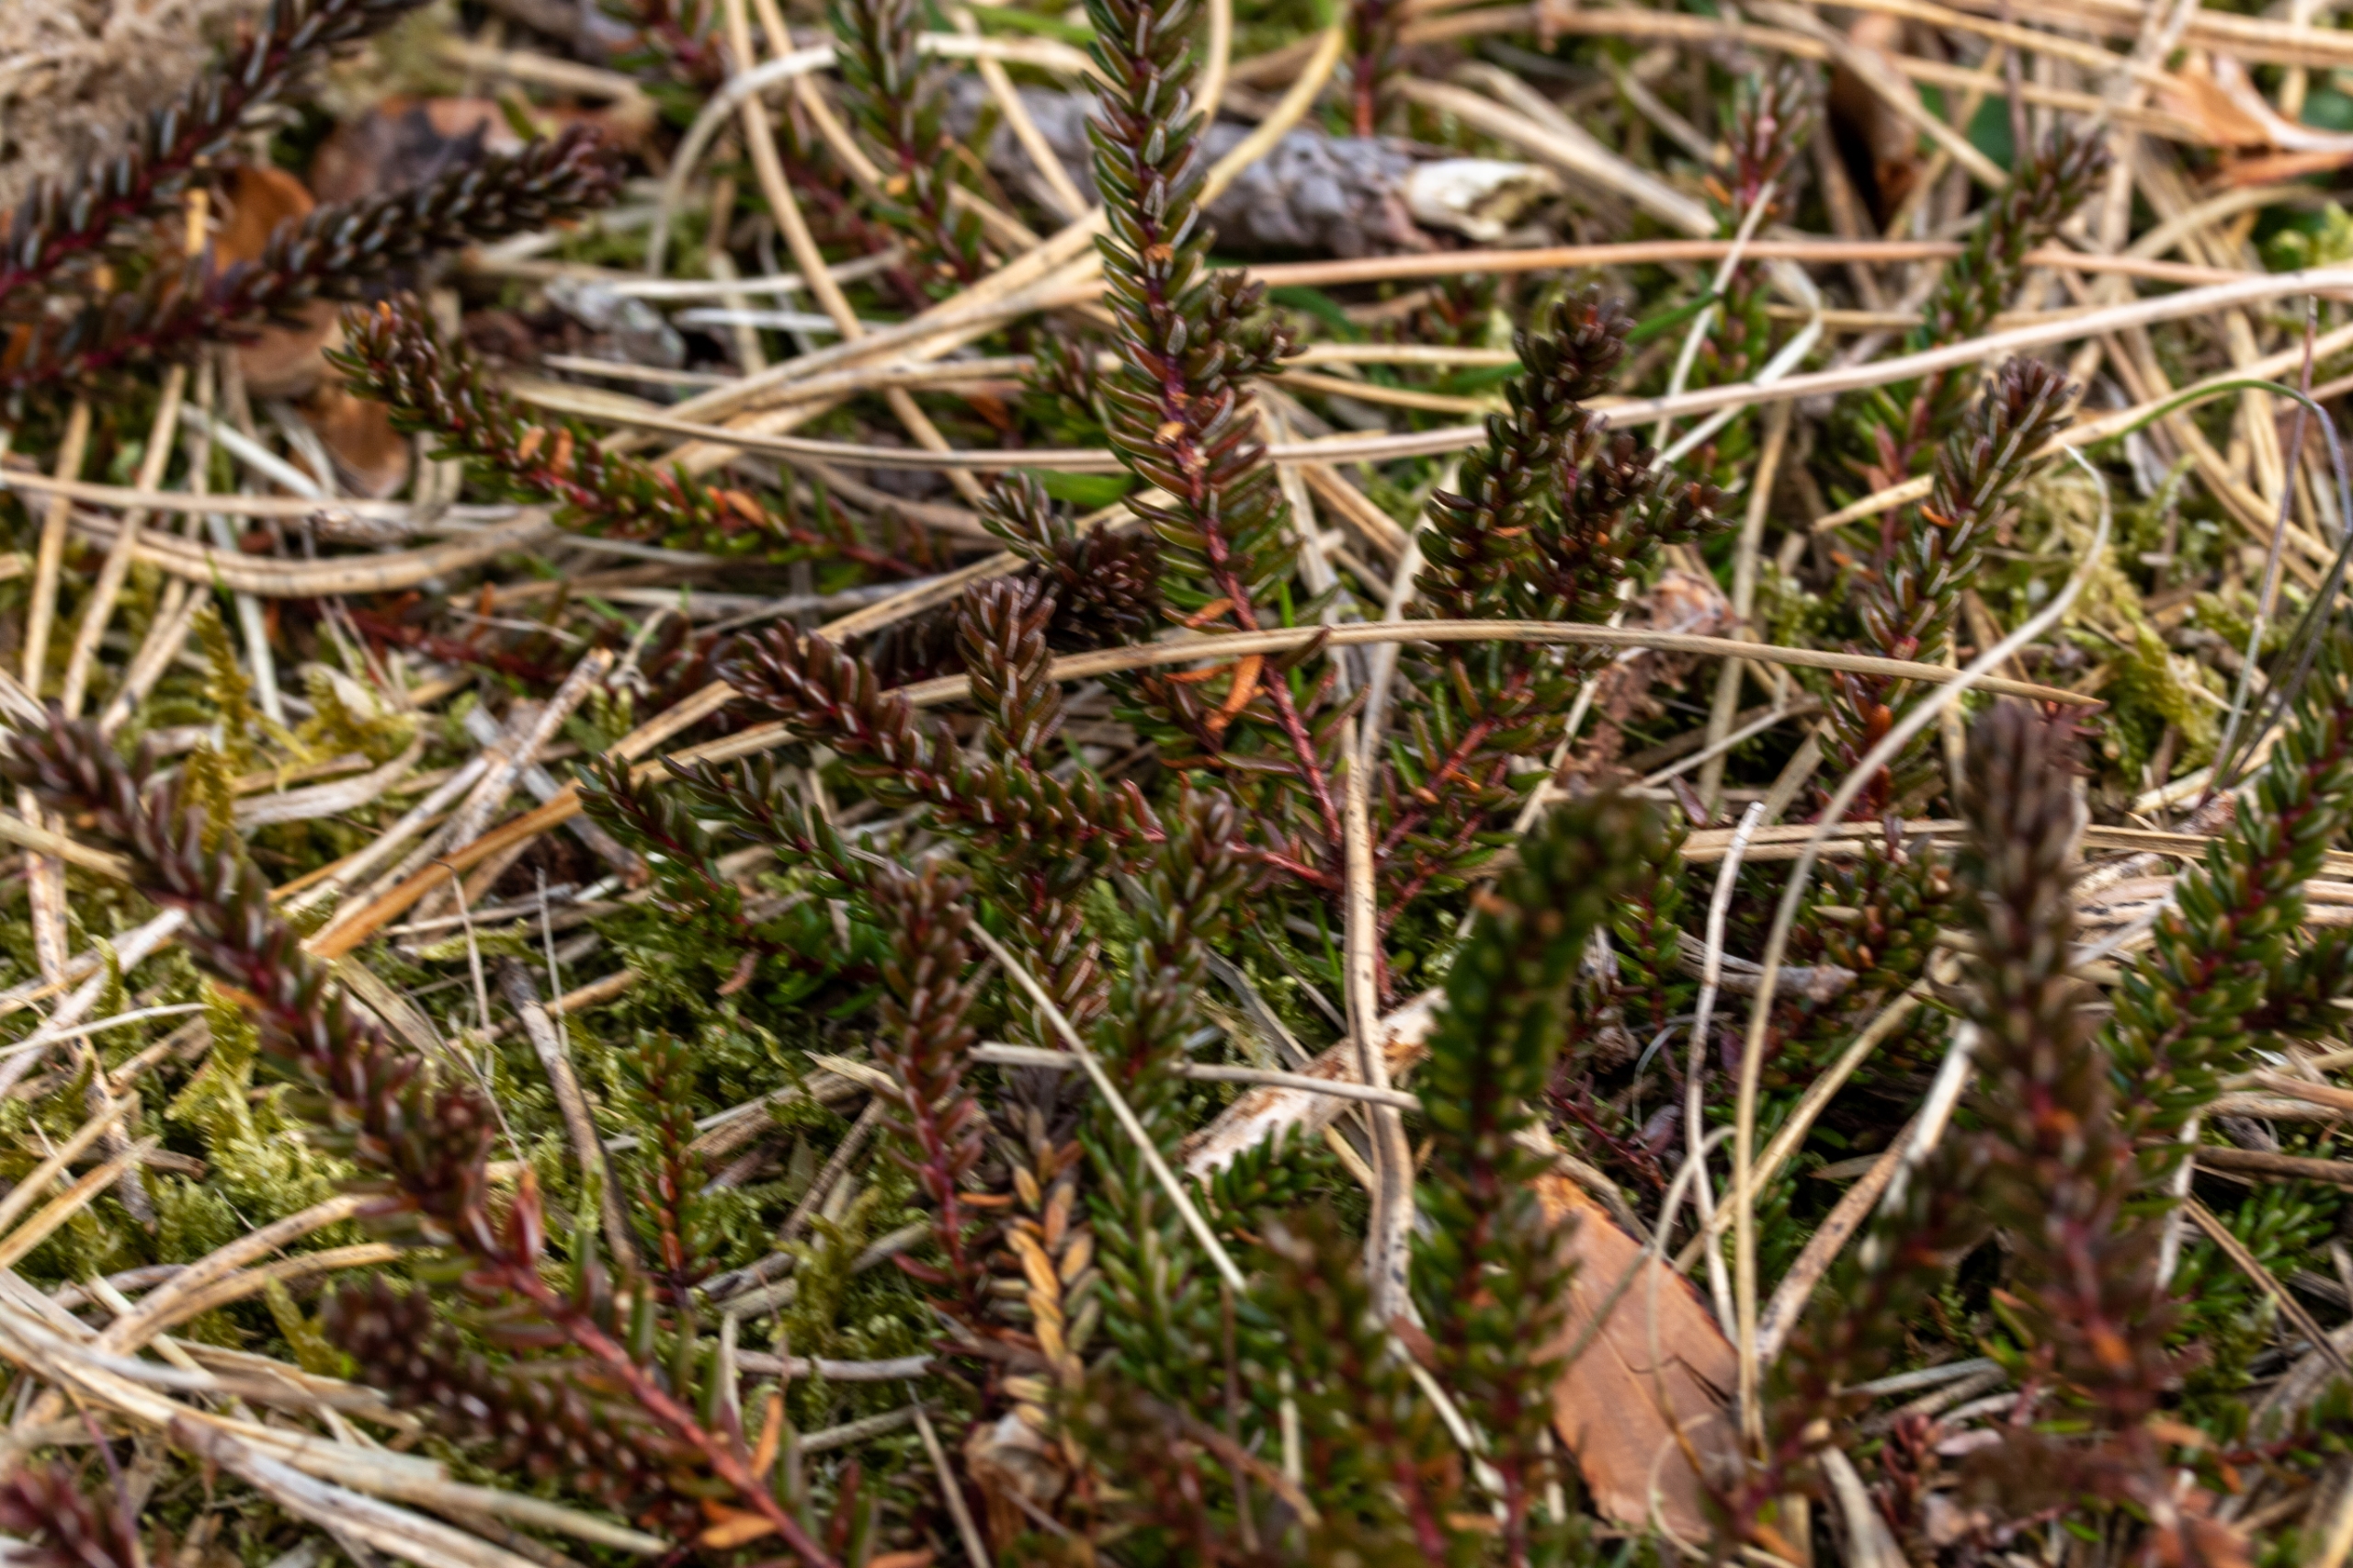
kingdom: Plantae
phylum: Tracheophyta
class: Magnoliopsida
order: Ericales
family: Ericaceae
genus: Empetrum
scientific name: Empetrum nigrum
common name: Revling
